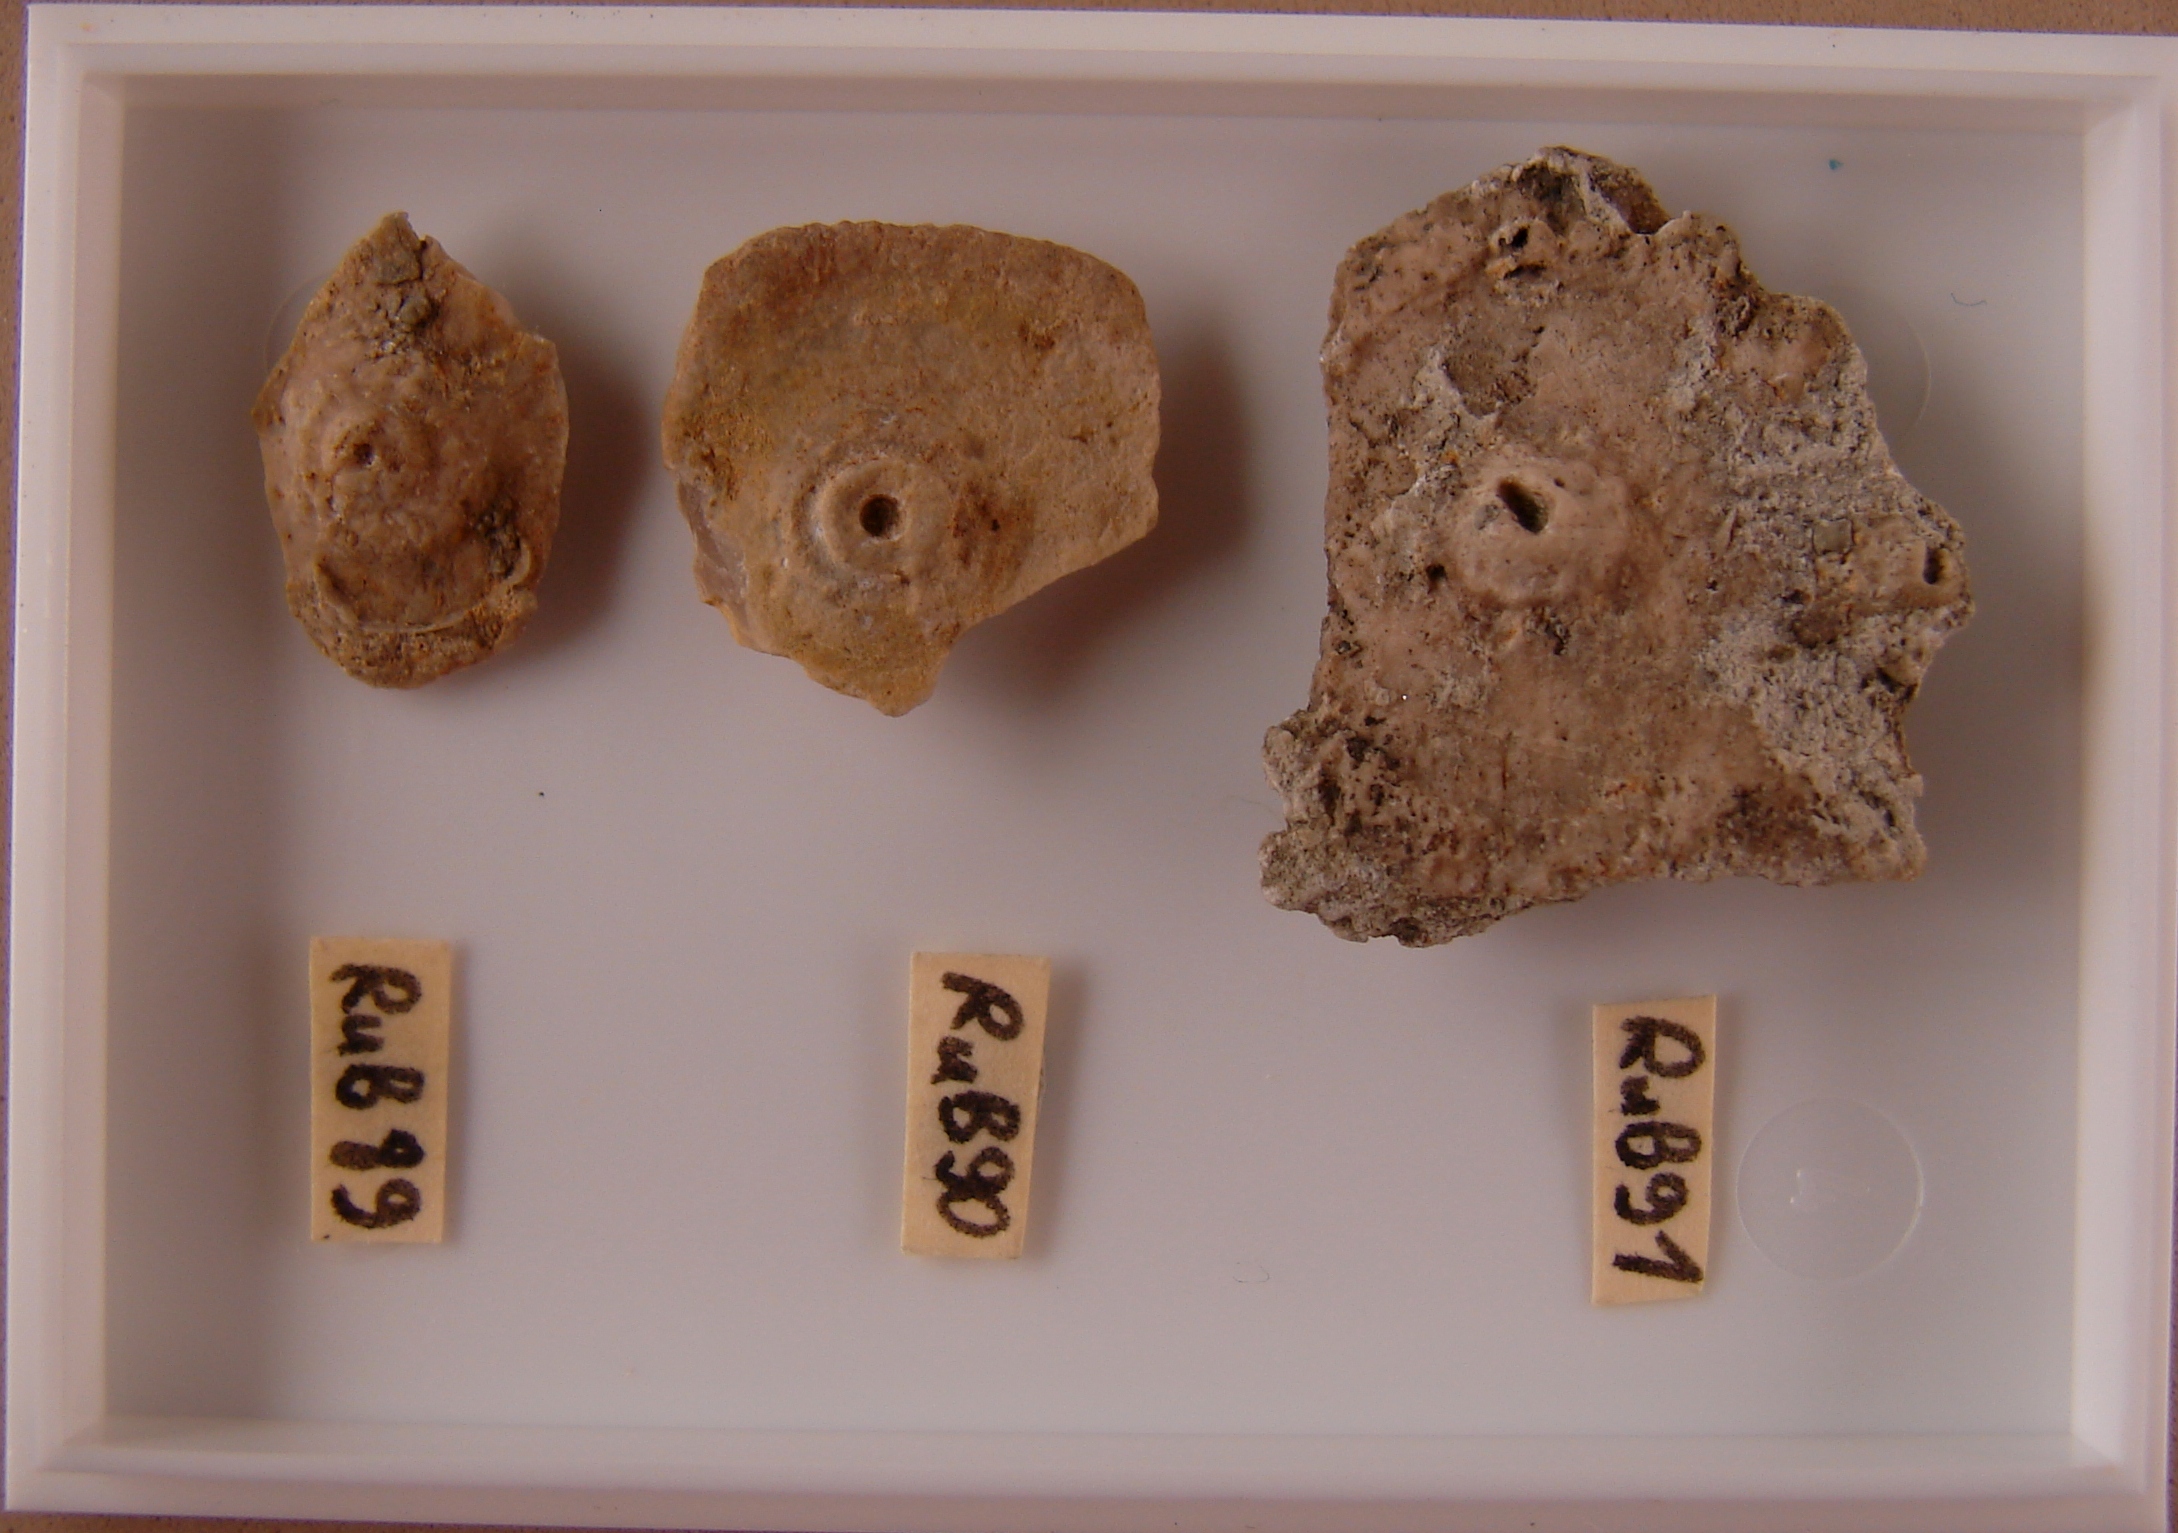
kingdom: Animalia
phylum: Echinodermata
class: Echinoidea
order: Cidaroida
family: Polycidaridae
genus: Polycidaris
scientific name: Polycidaris
